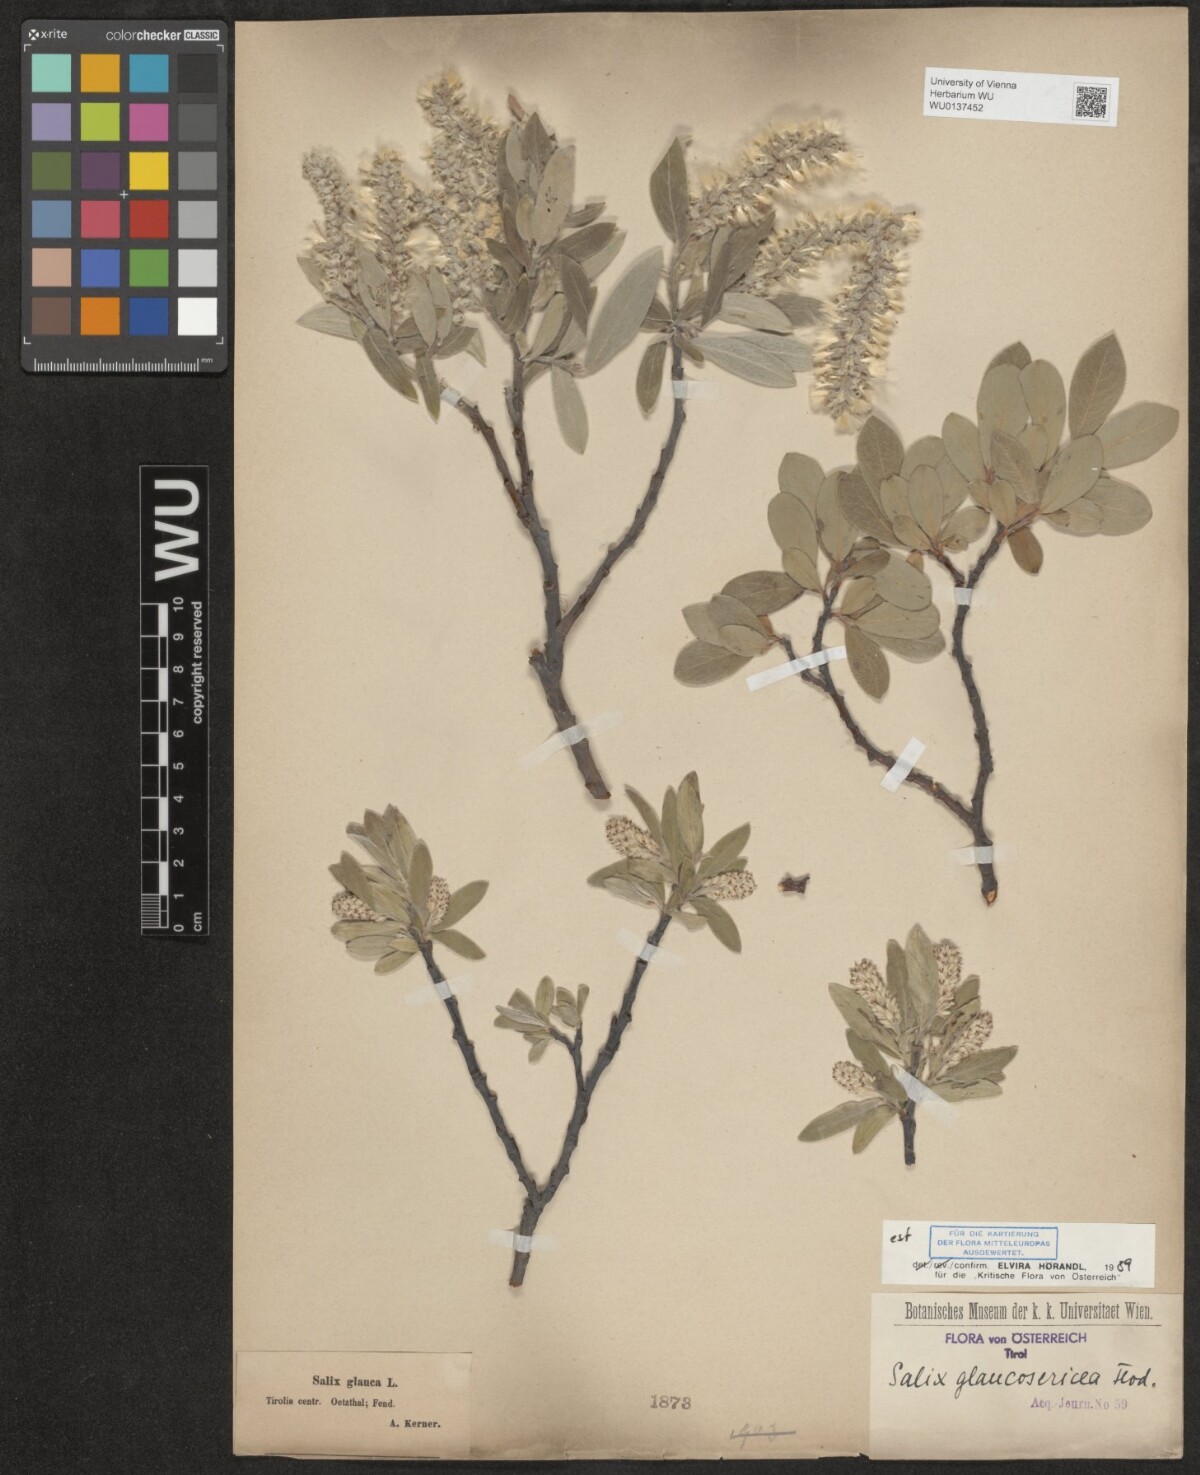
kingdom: Plantae
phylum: Tracheophyta
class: Magnoliopsida
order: Malpighiales
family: Salicaceae
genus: Salix
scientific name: Salix glaucosericea
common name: Alpine gray willow
